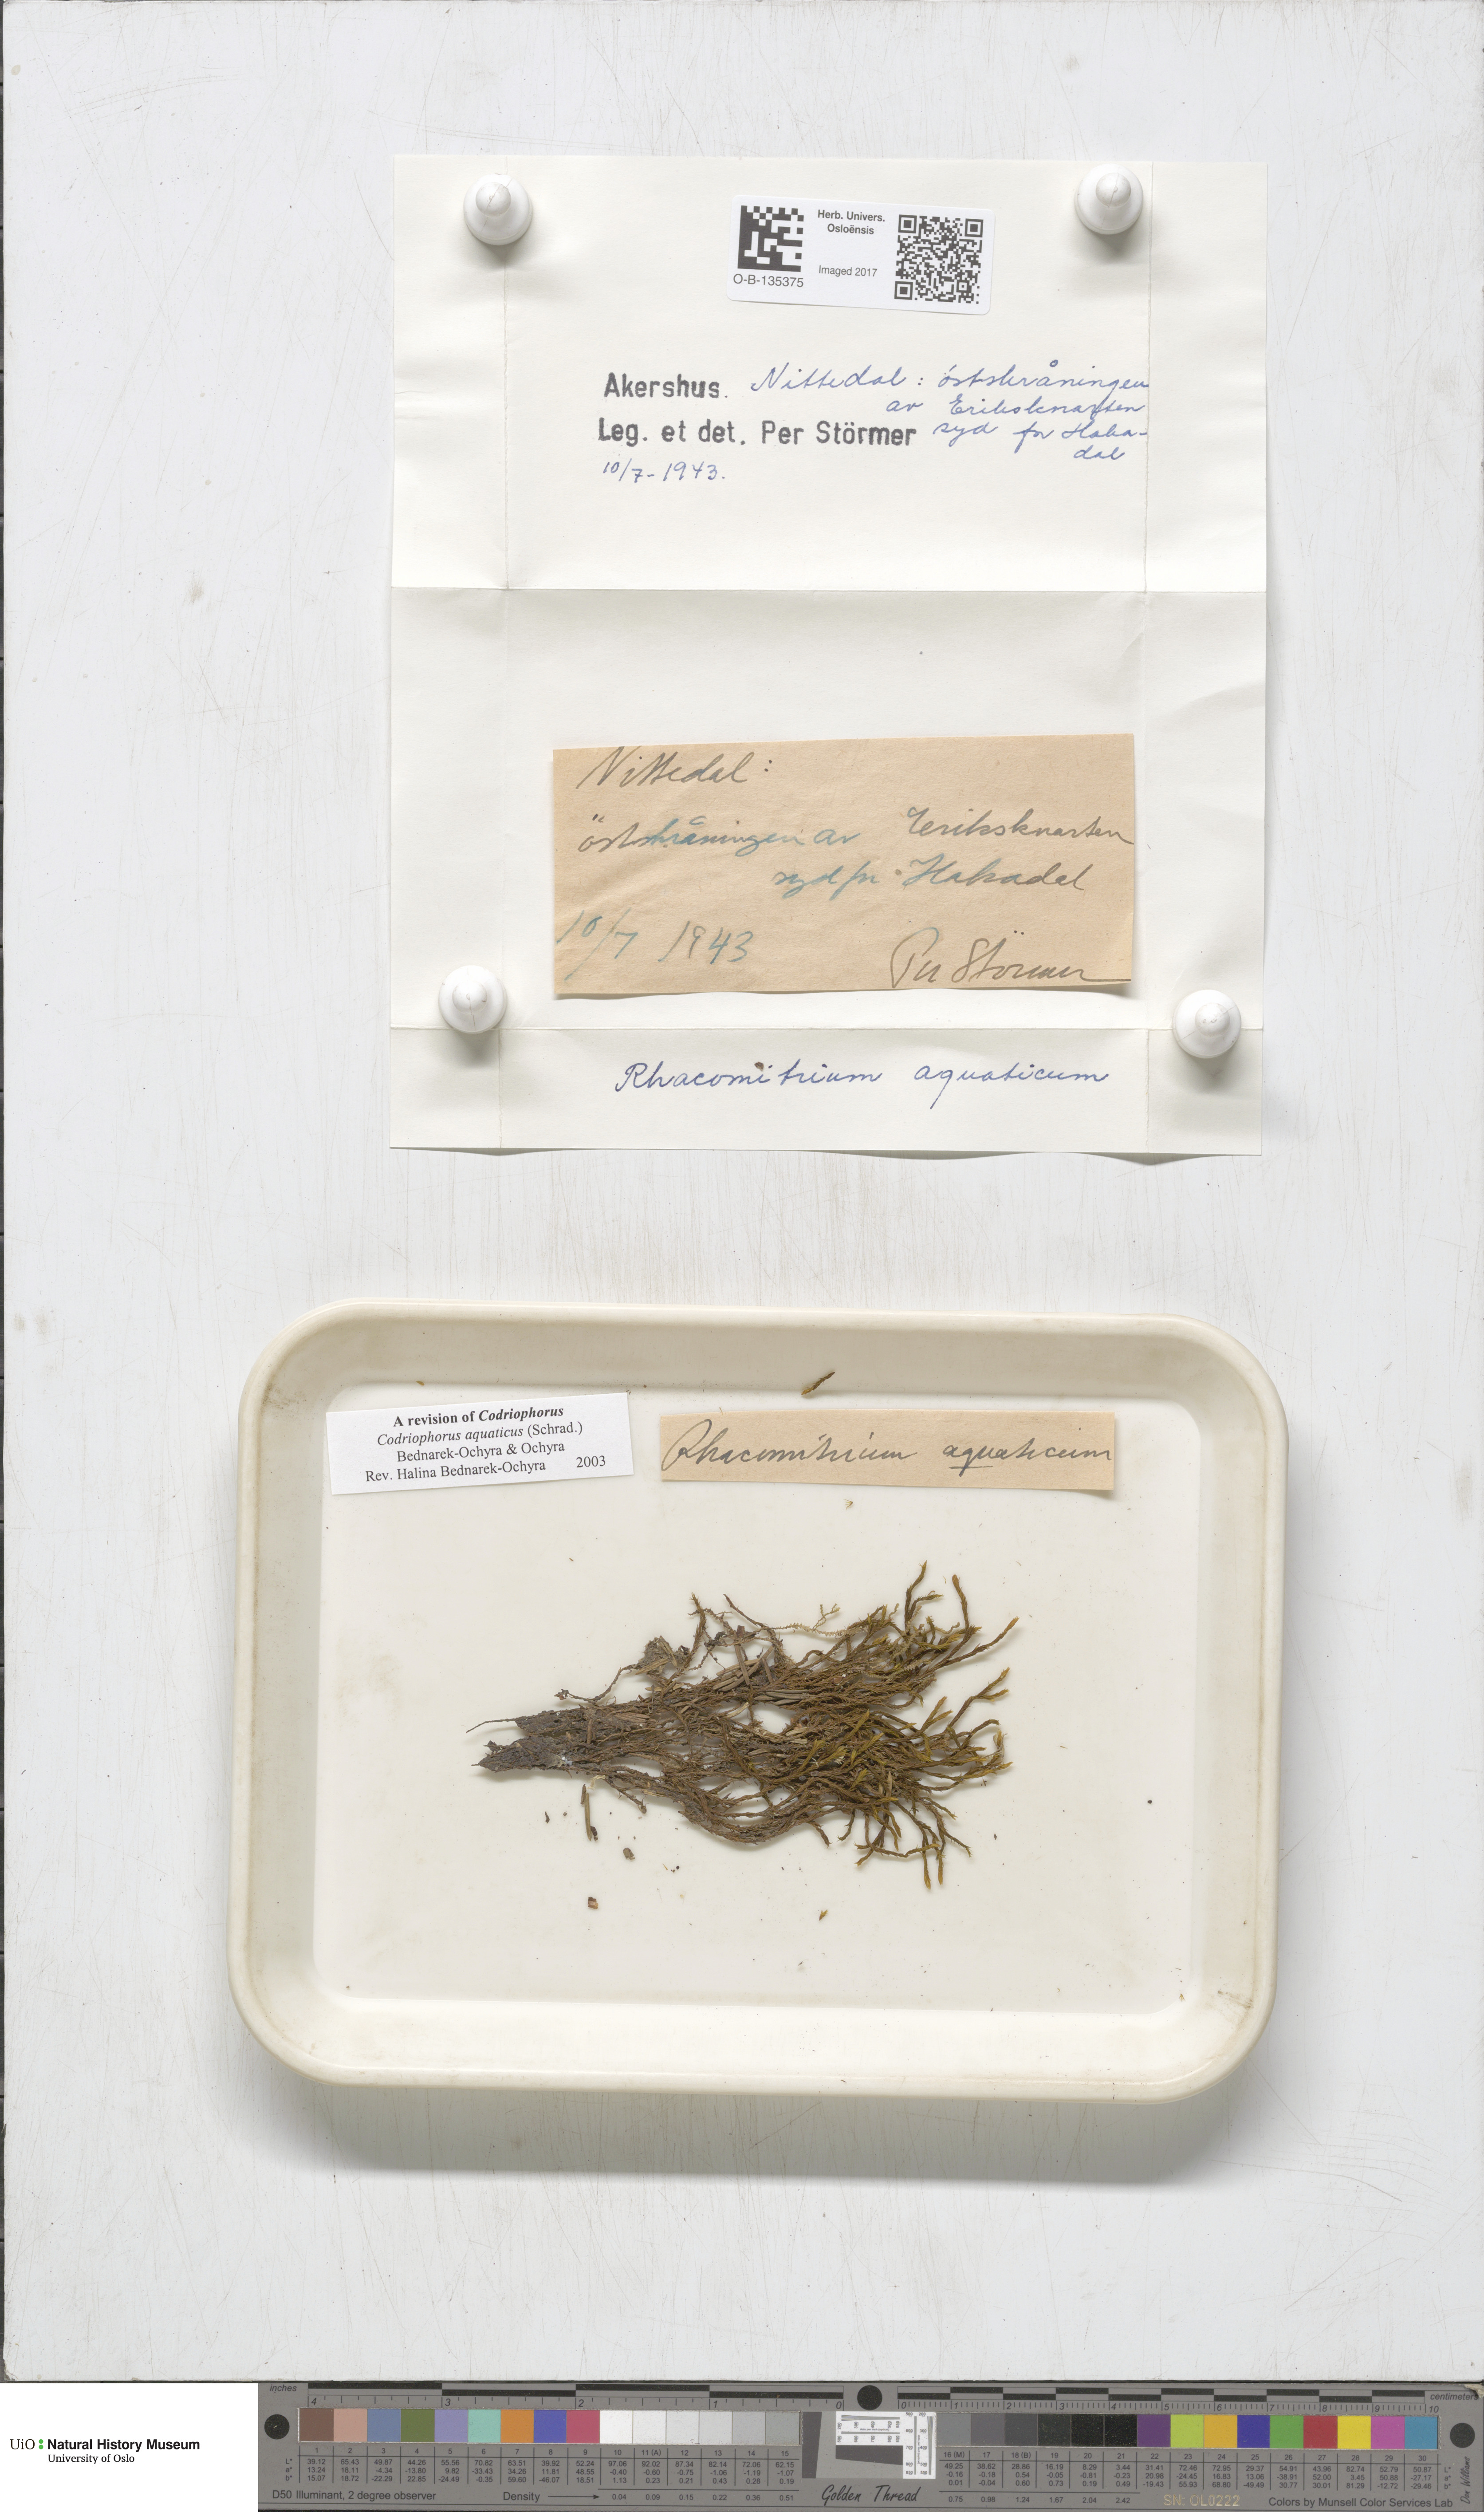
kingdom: Plantae
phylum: Bryophyta
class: Bryopsida
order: Grimmiales
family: Grimmiaceae
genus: Codriophorus
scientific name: Codriophorus aquaticus
